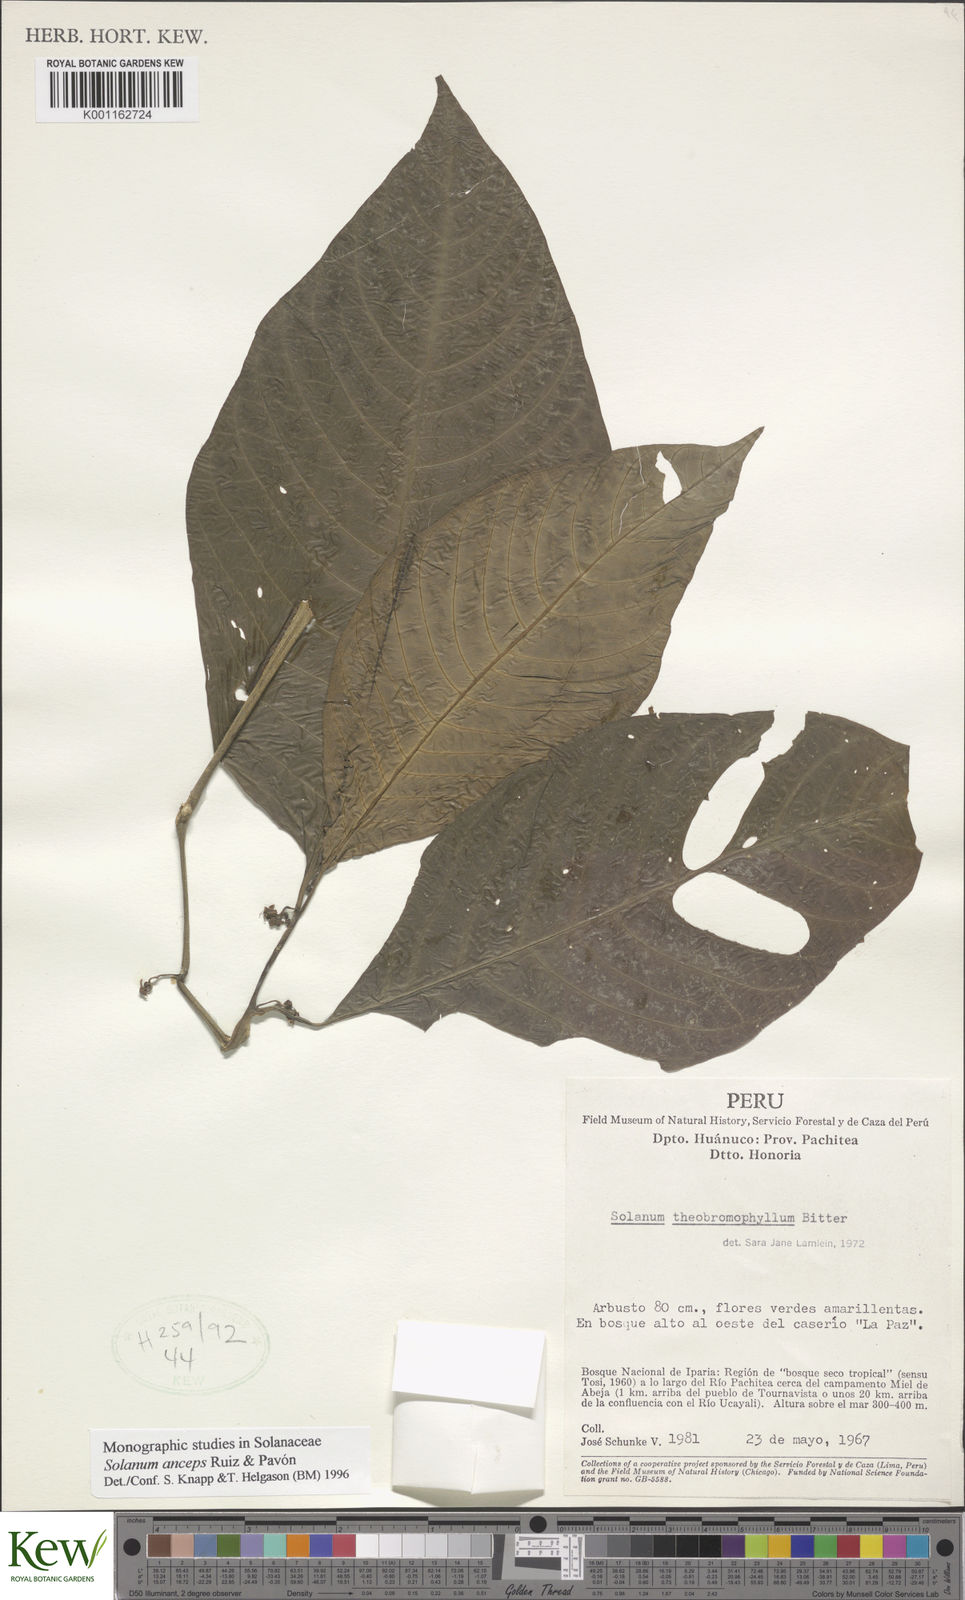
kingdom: Plantae
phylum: Tracheophyta
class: Magnoliopsida
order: Solanales
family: Solanaceae
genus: Solanum
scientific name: Solanum anceps
